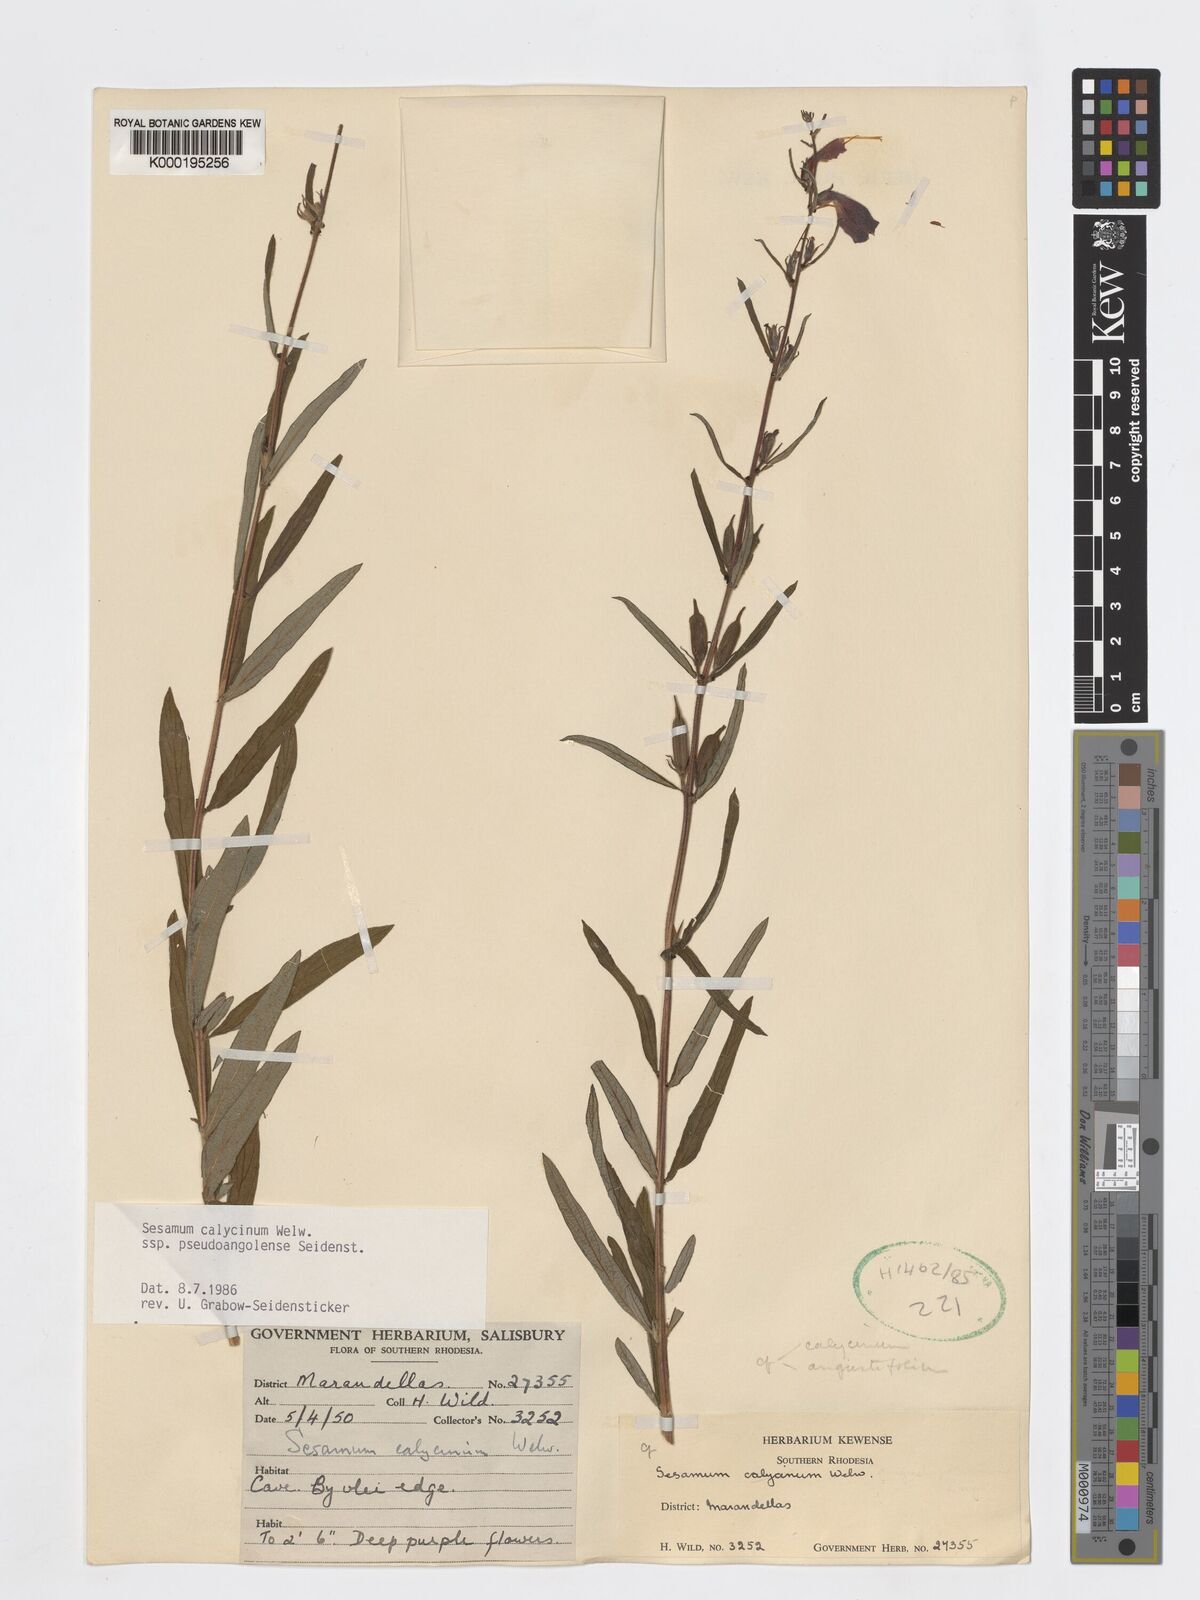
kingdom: Plantae
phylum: Tracheophyta
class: Magnoliopsida
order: Lamiales
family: Pedaliaceae
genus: Sesamum
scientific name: Sesamum calycinum
